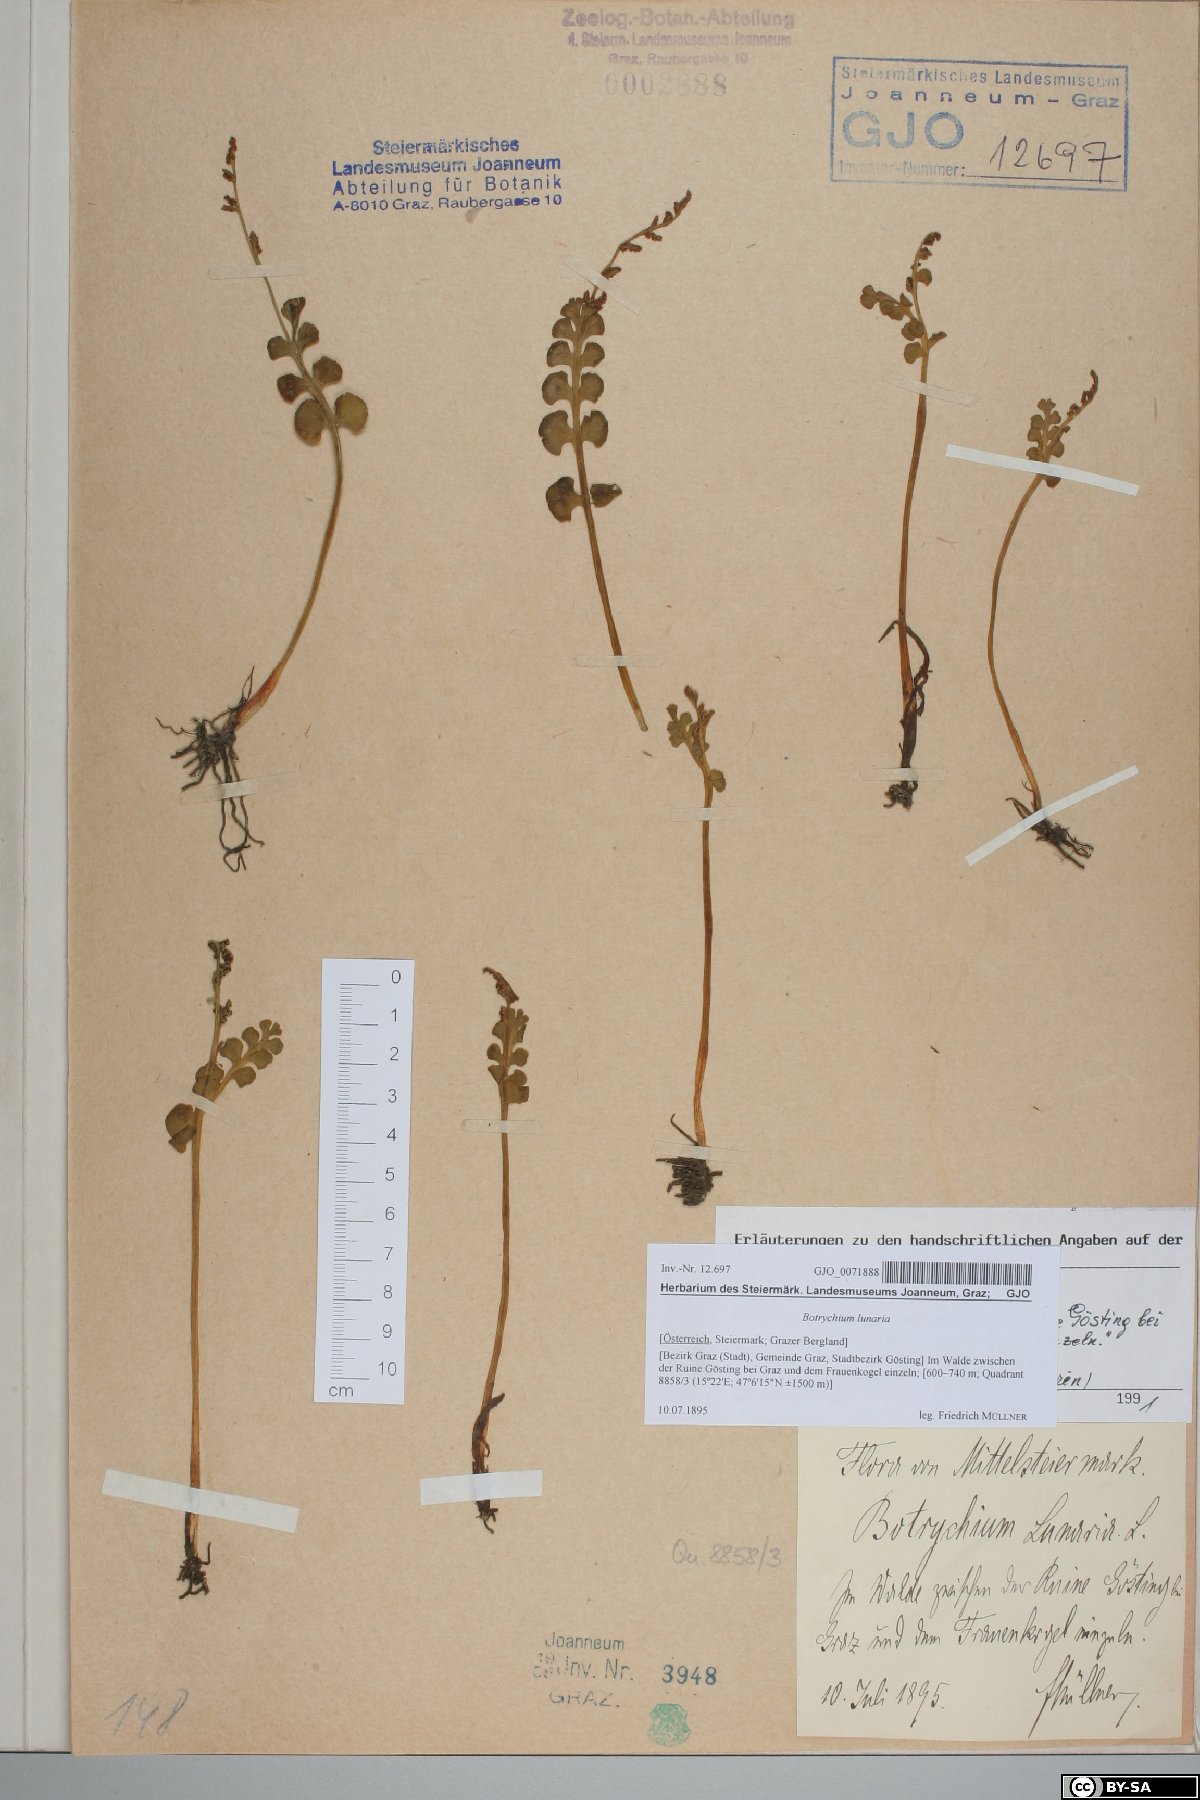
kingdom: Plantae
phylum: Tracheophyta
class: Polypodiopsida
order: Ophioglossales
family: Ophioglossaceae
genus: Botrychium
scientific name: Botrychium lunaria
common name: Moonwort
